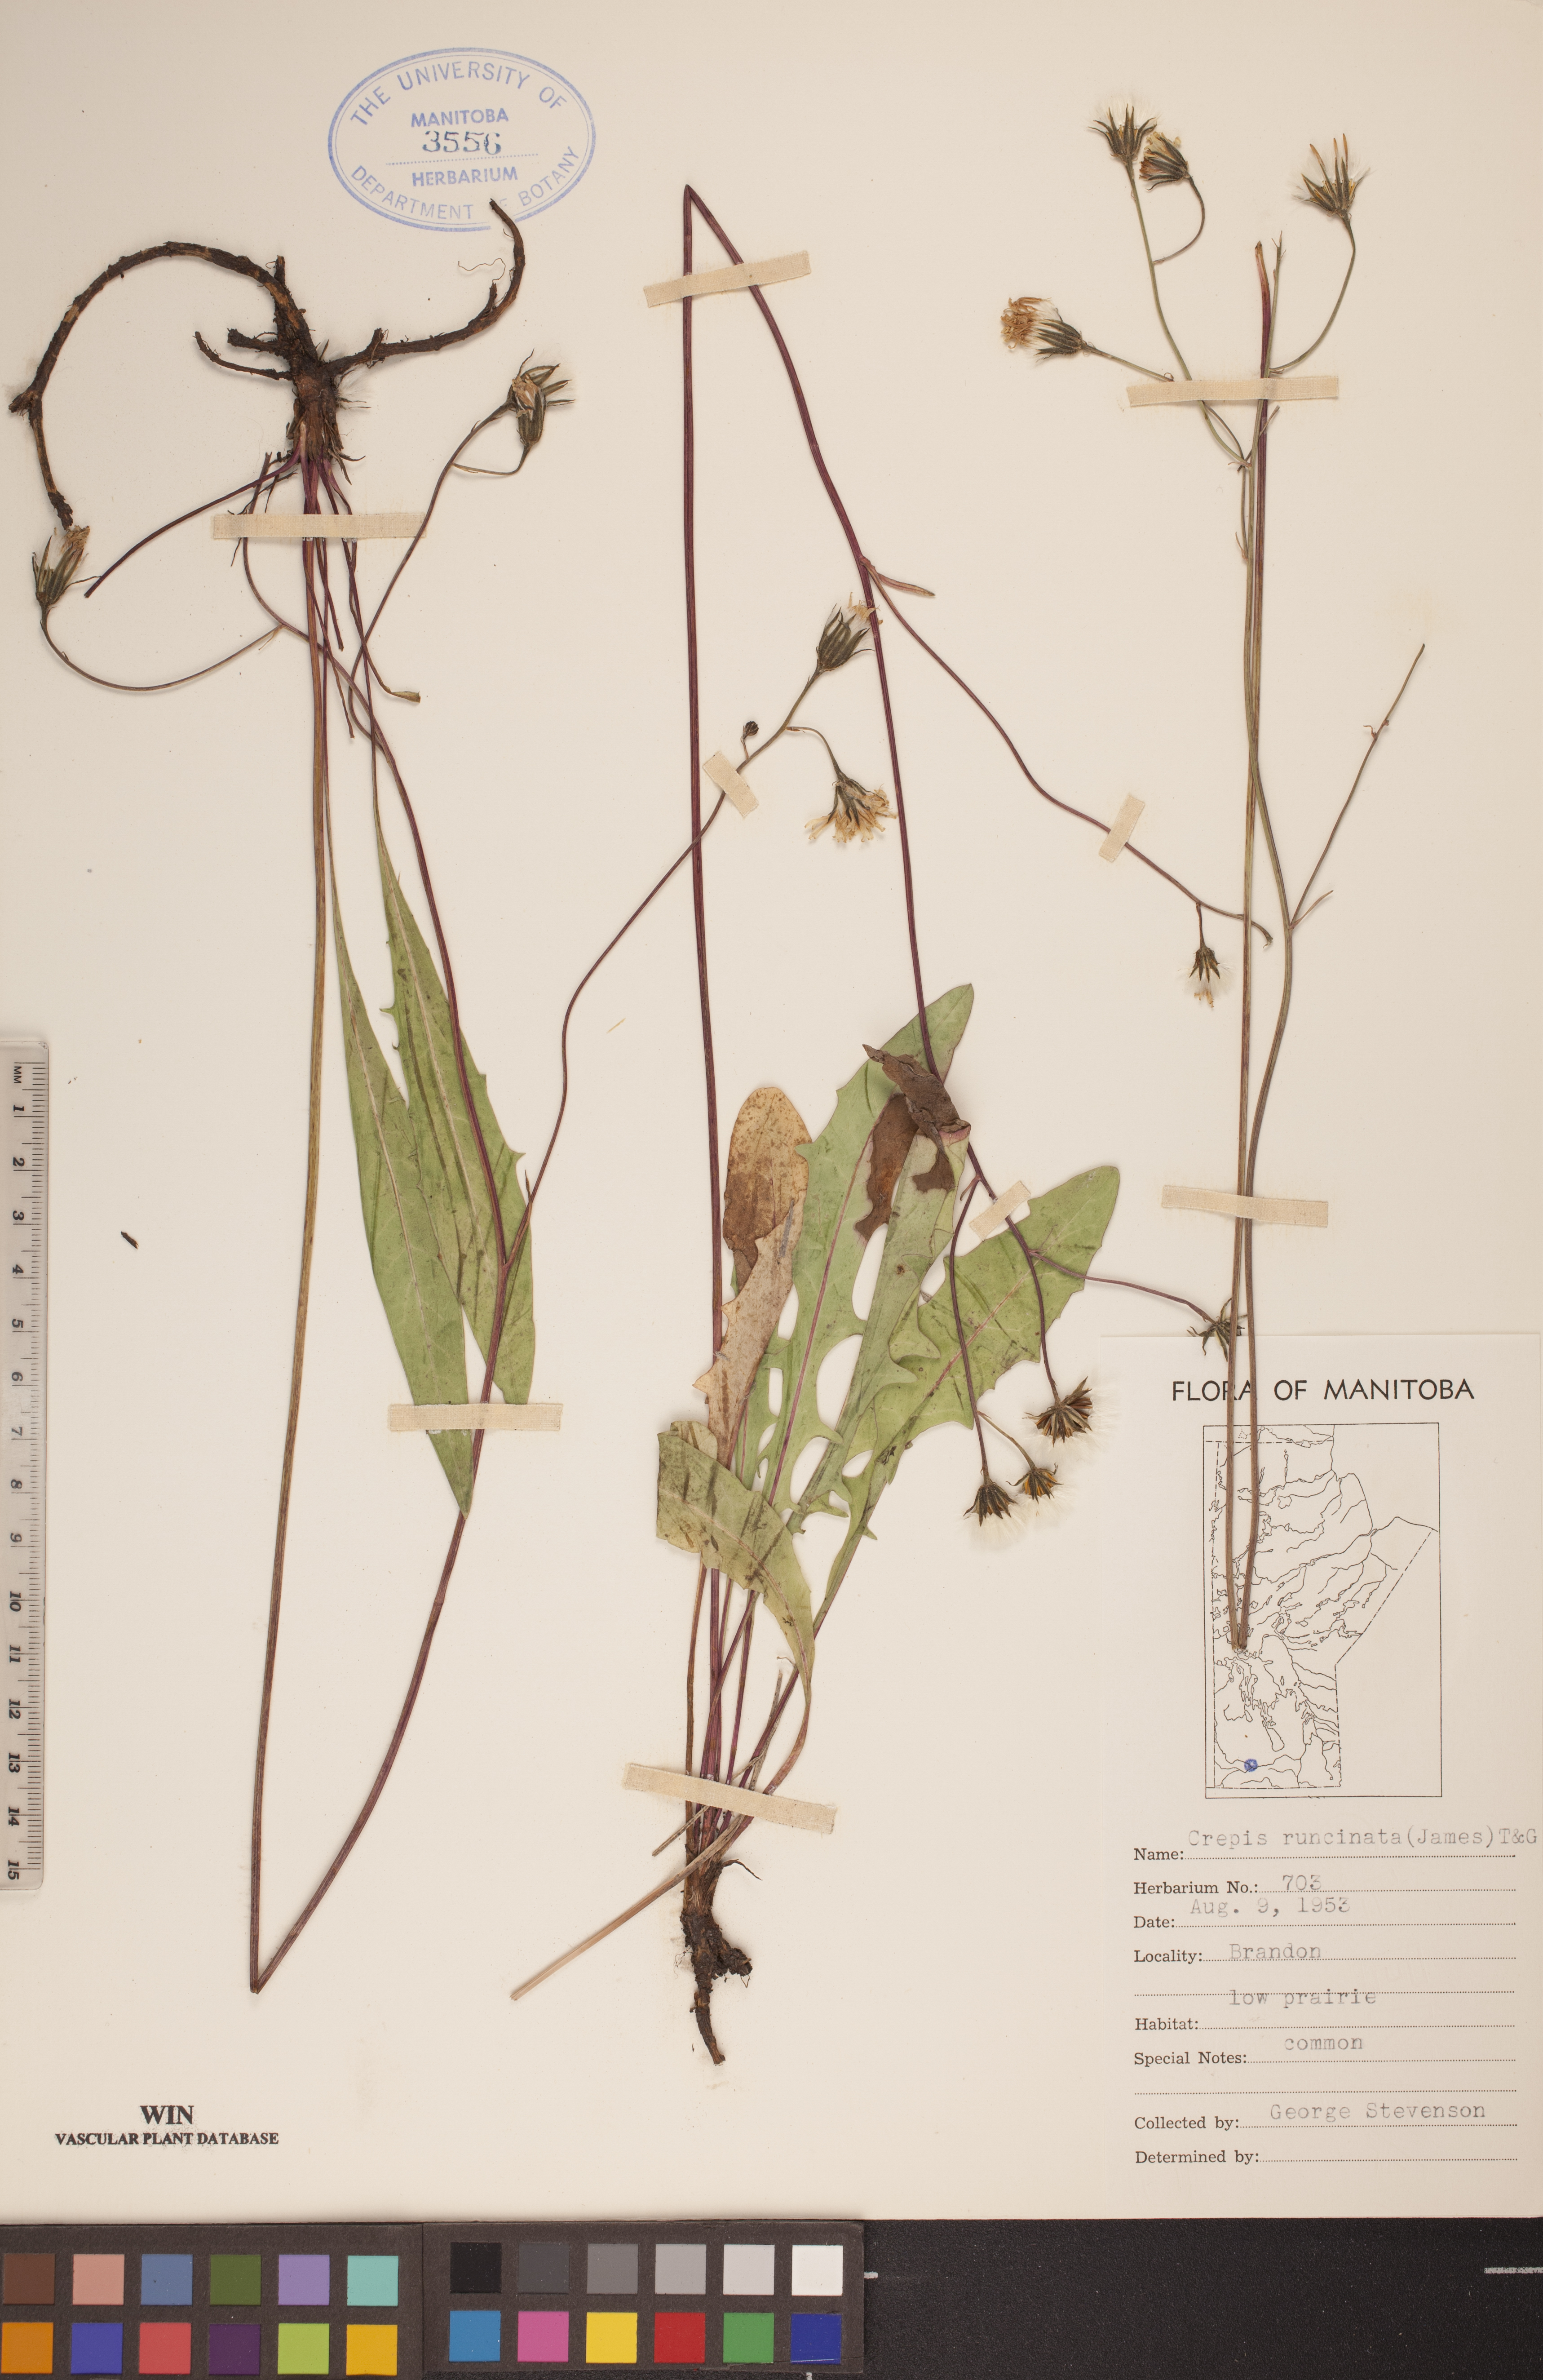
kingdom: Plantae
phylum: Tracheophyta
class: Magnoliopsida
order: Asterales
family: Asteraceae
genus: Crepis
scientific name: Crepis runcinata
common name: Dandelion hawksbeard
